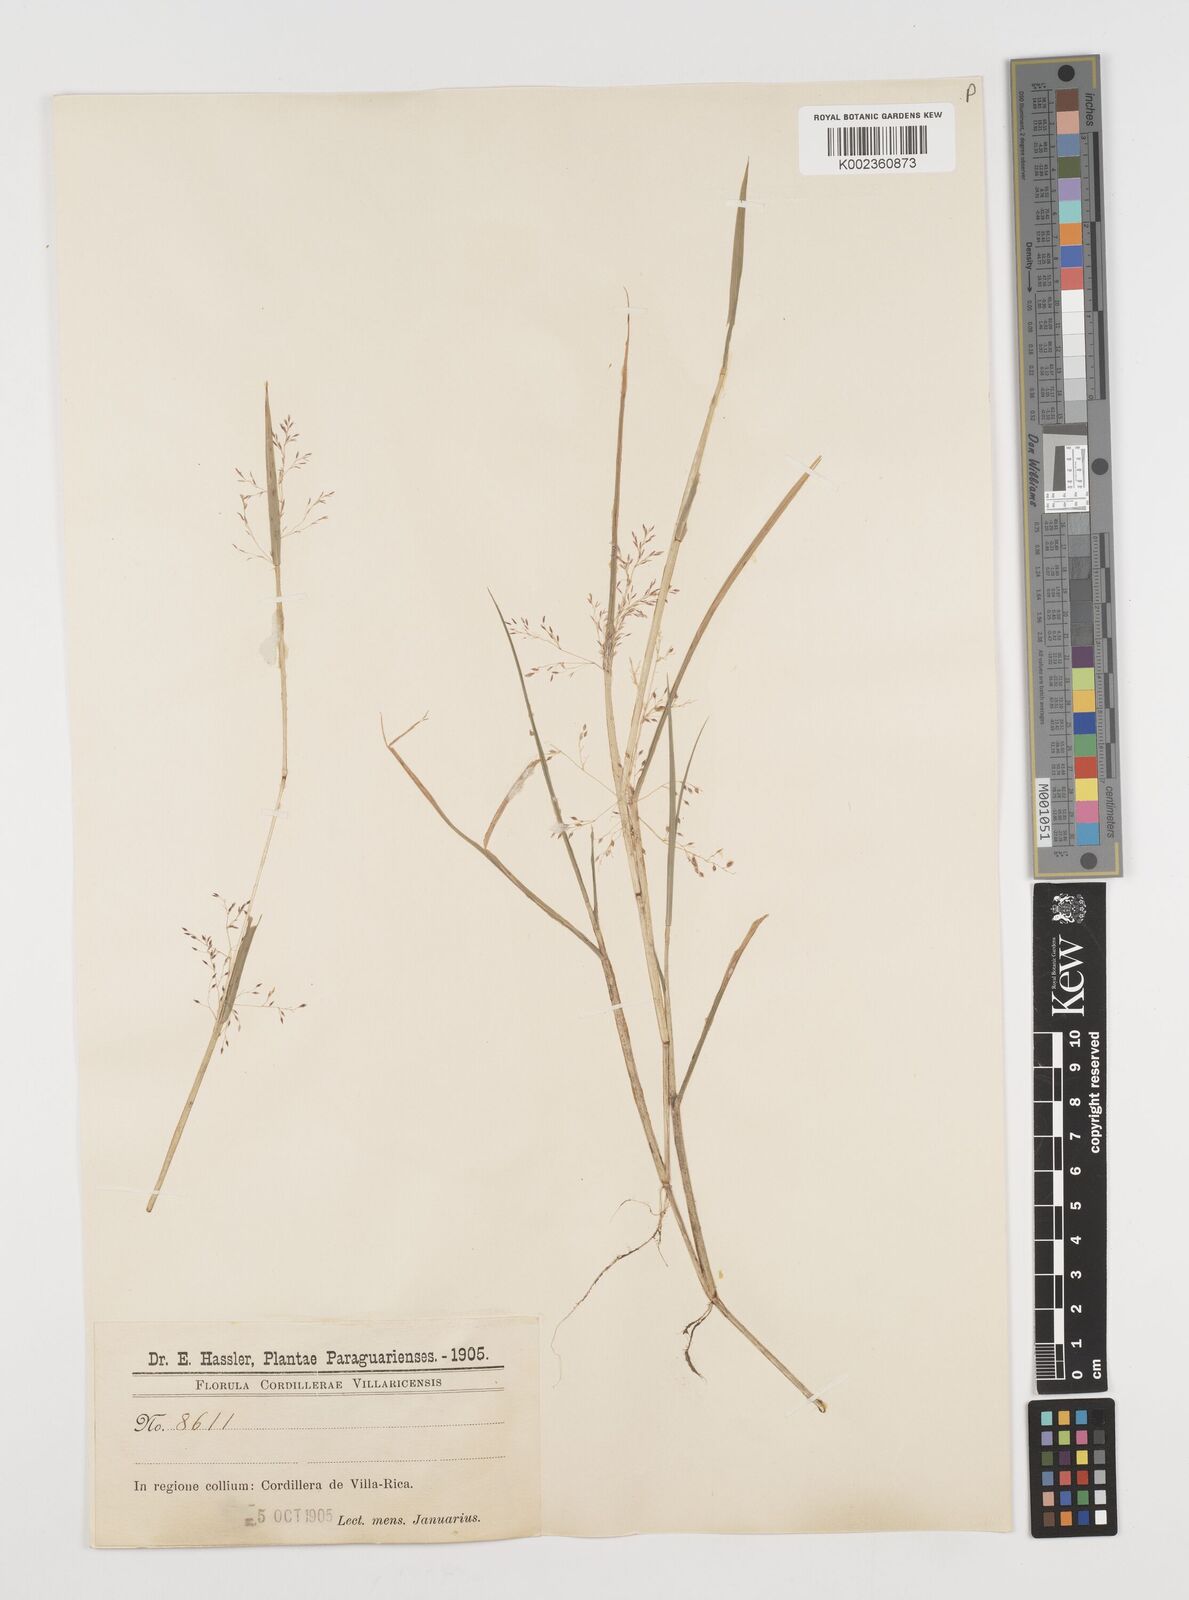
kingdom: Plantae
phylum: Tracheophyta
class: Liliopsida
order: Poales
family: Poaceae
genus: Luziola
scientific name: Luziola peruviana
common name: Peruvian watergrass
